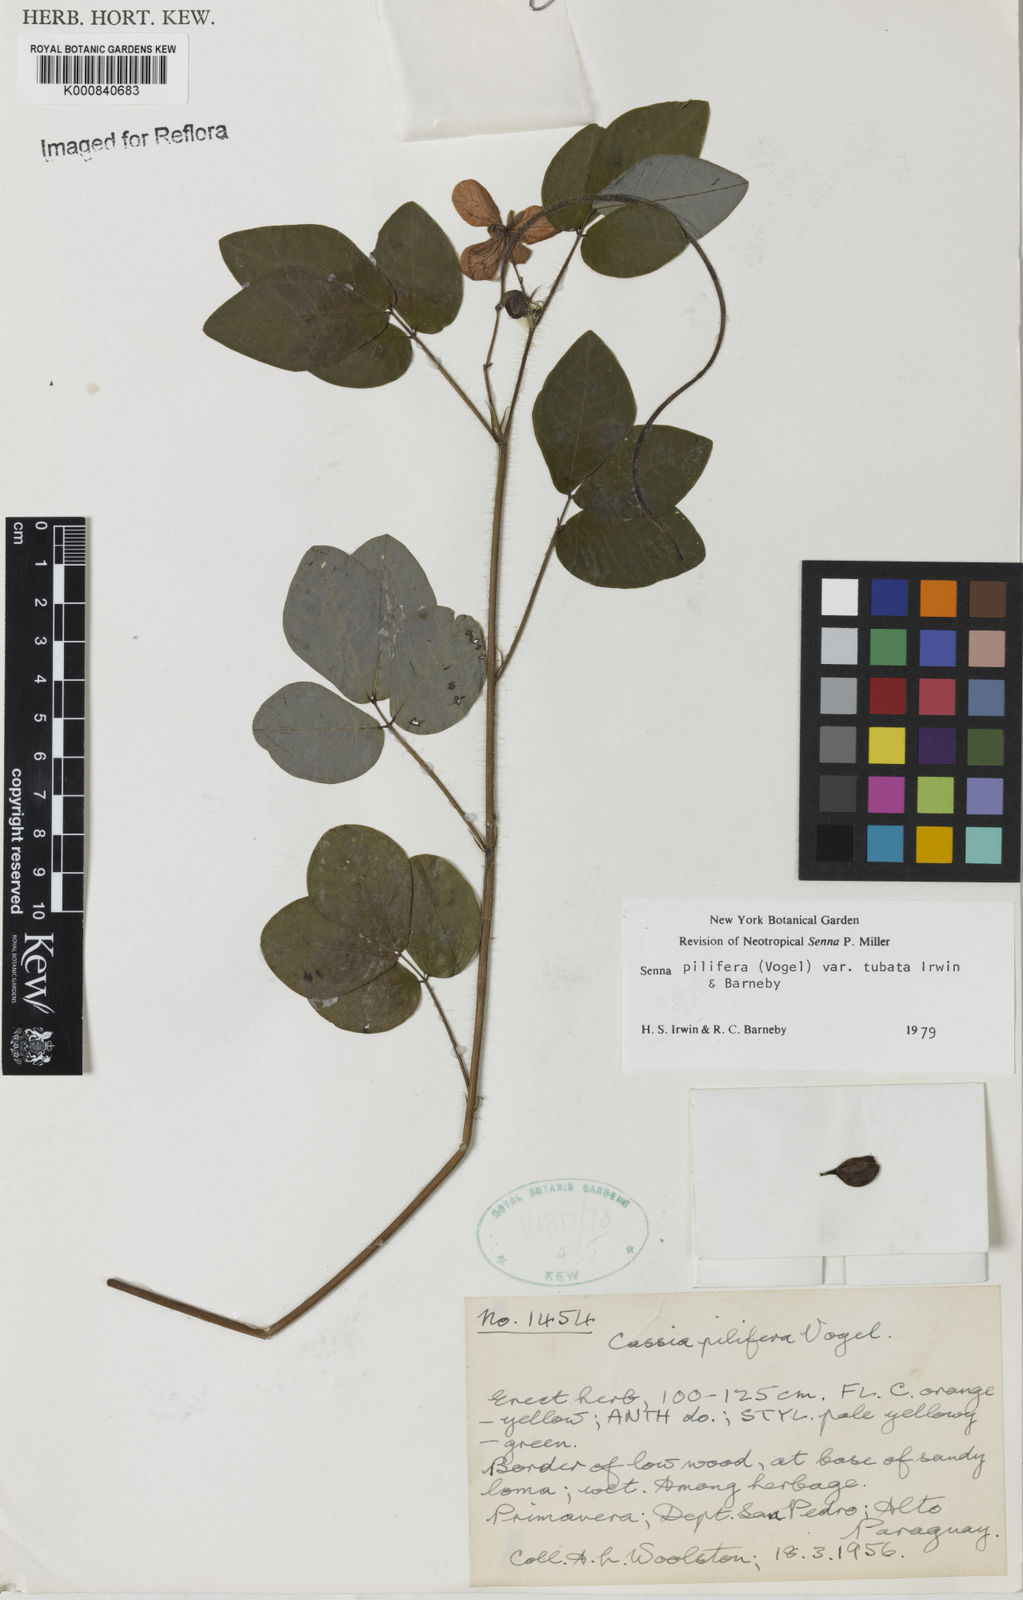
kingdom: Plantae
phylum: Tracheophyta
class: Magnoliopsida
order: Fabales
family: Fabaceae
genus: Senna
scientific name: Senna pilifera
